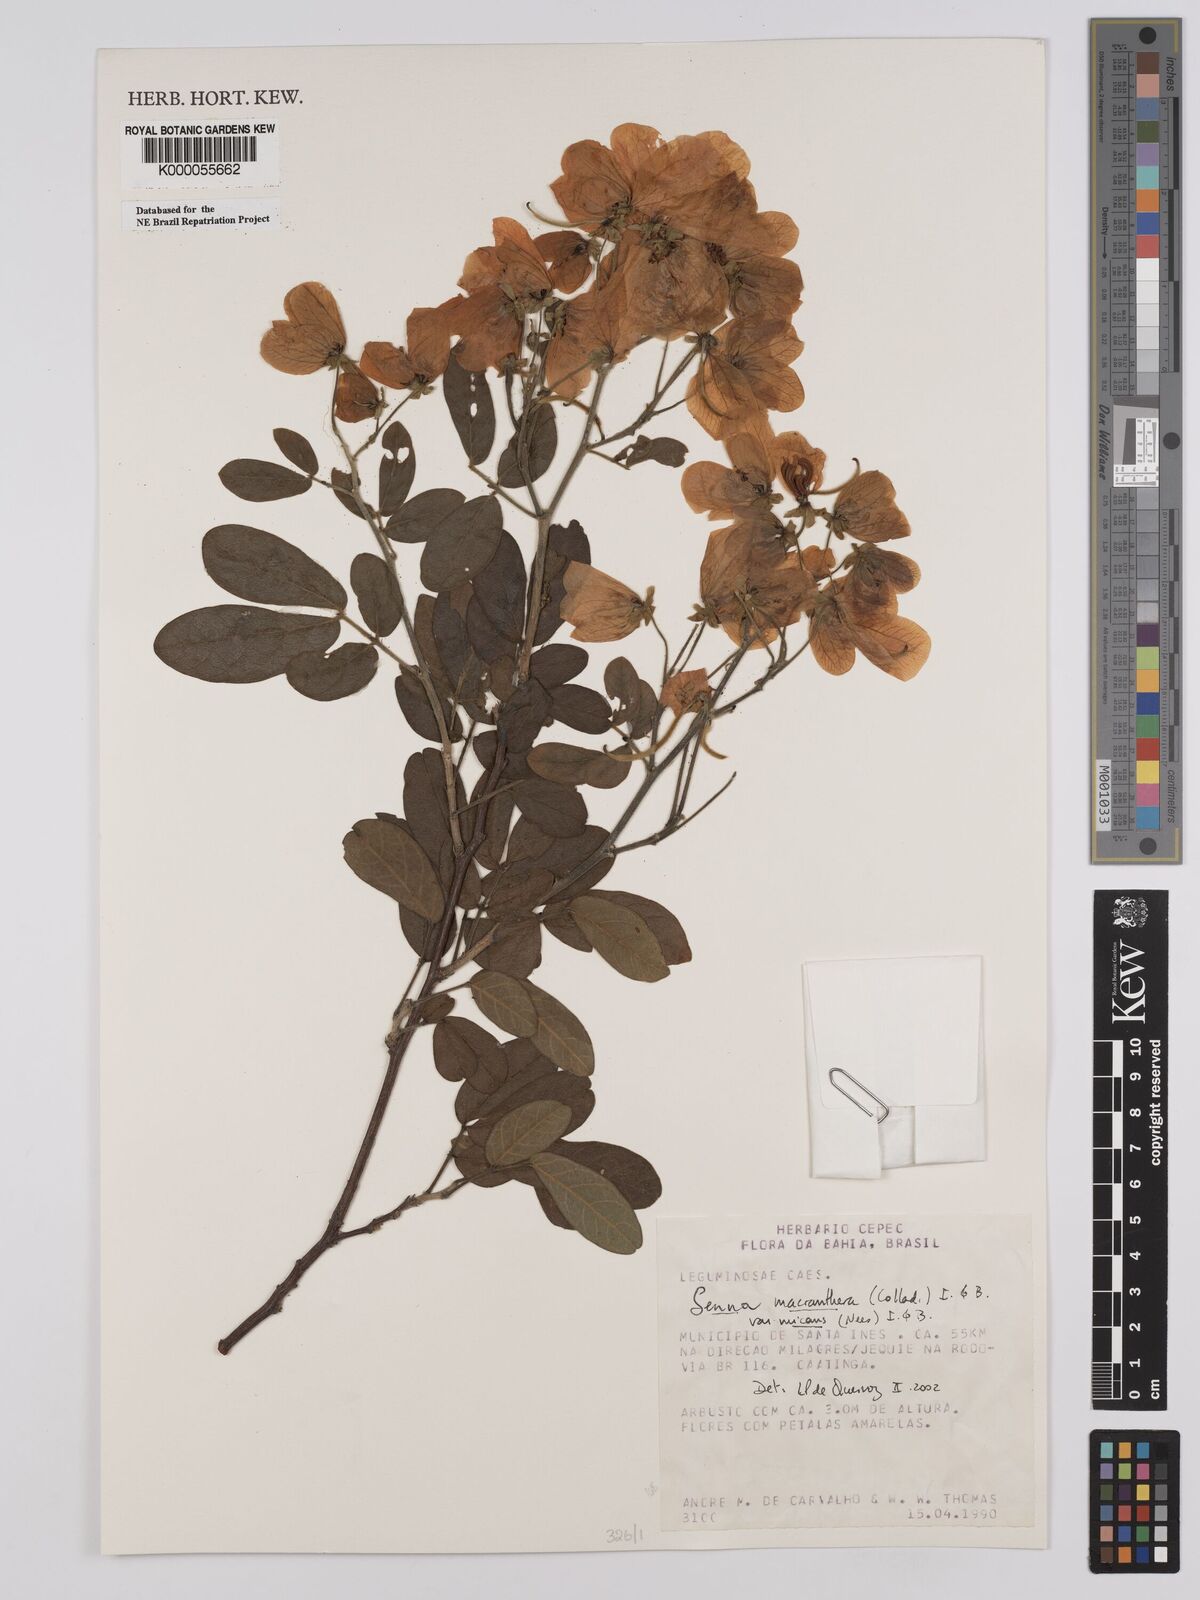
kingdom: Plantae
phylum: Tracheophyta
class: Magnoliopsida
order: Fabales
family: Fabaceae
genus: Senna
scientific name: Senna macranthera
